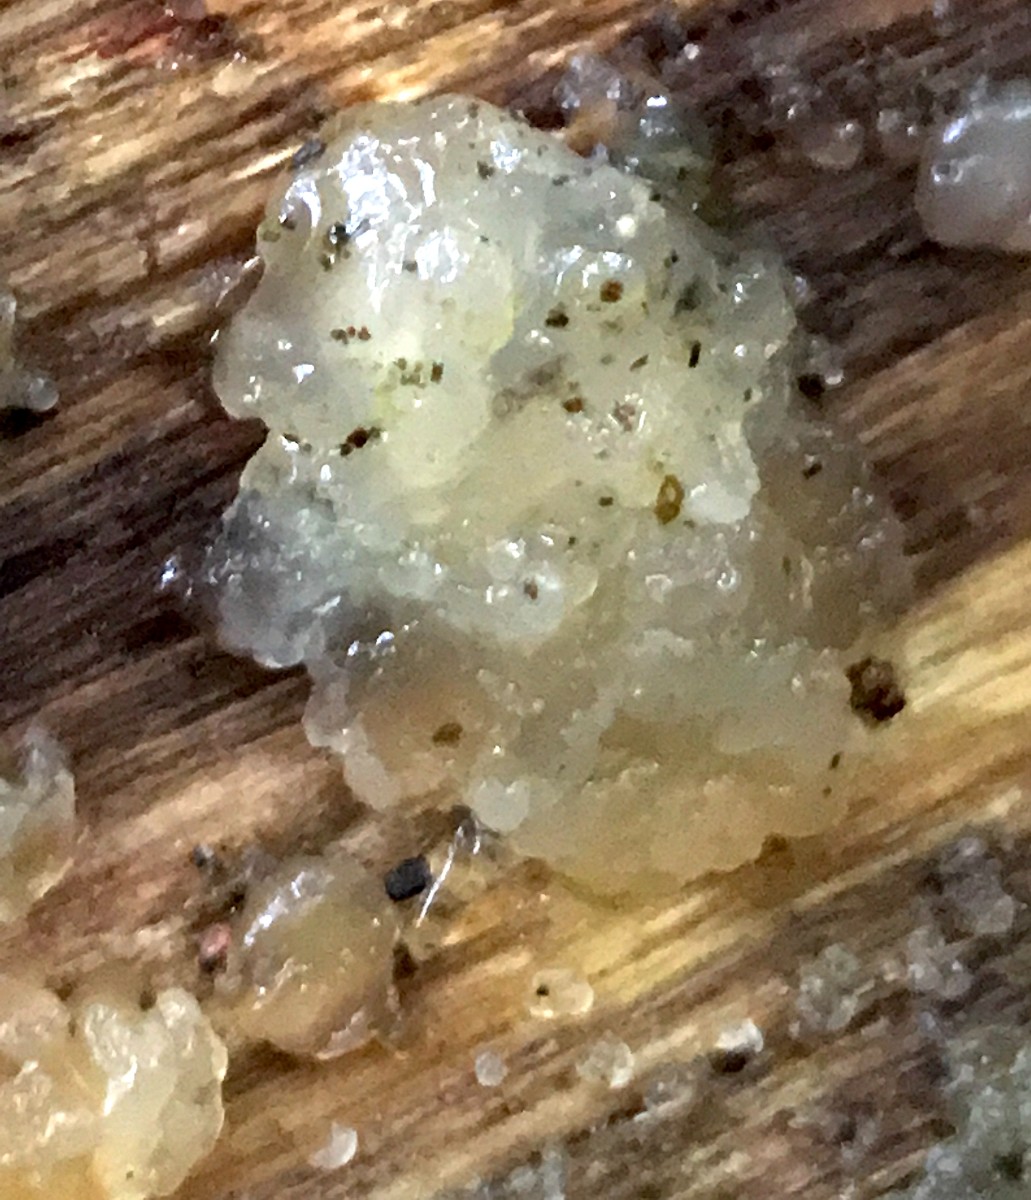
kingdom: Fungi
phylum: Basidiomycota
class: Agaricomycetes
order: Auriculariales
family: Hyaloriaceae
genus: Myxarium
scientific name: Myxarium nucleatum
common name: klar bævretop
